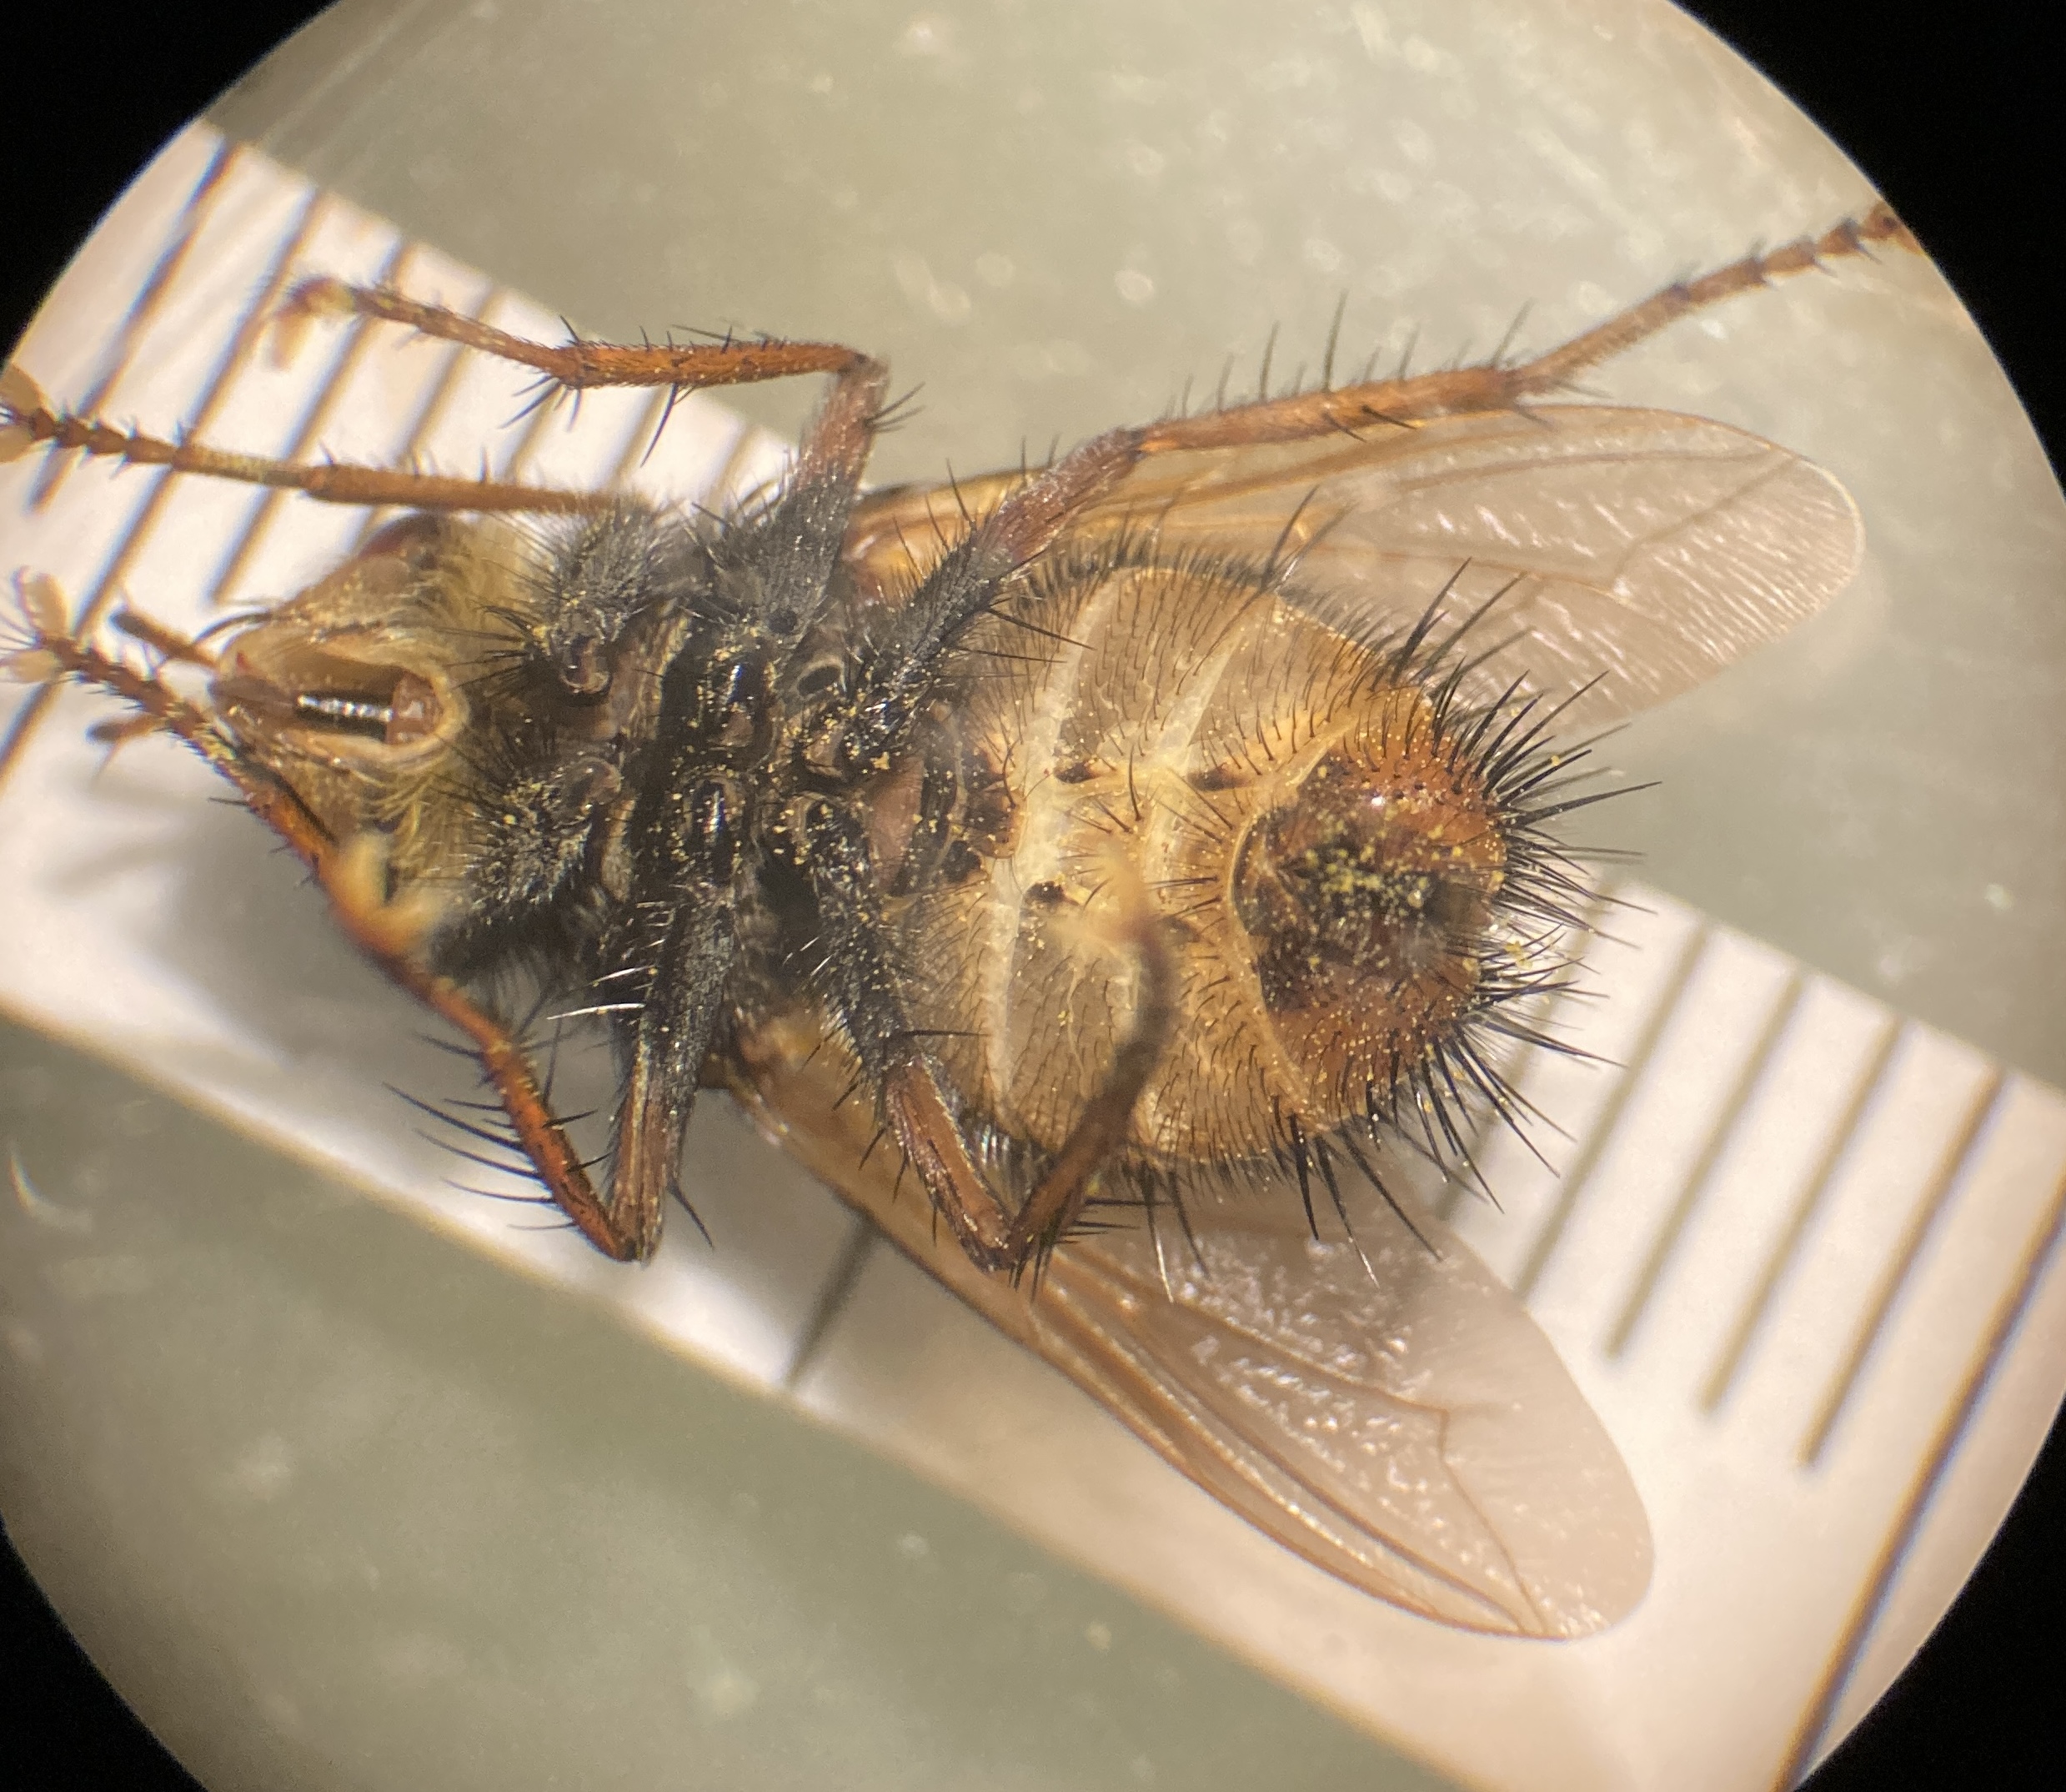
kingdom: Animalia
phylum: Arthropoda
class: Insecta
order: Diptera
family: Tachinidae
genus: Tachina
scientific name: Tachina fera
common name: Mellemfluen oskar
